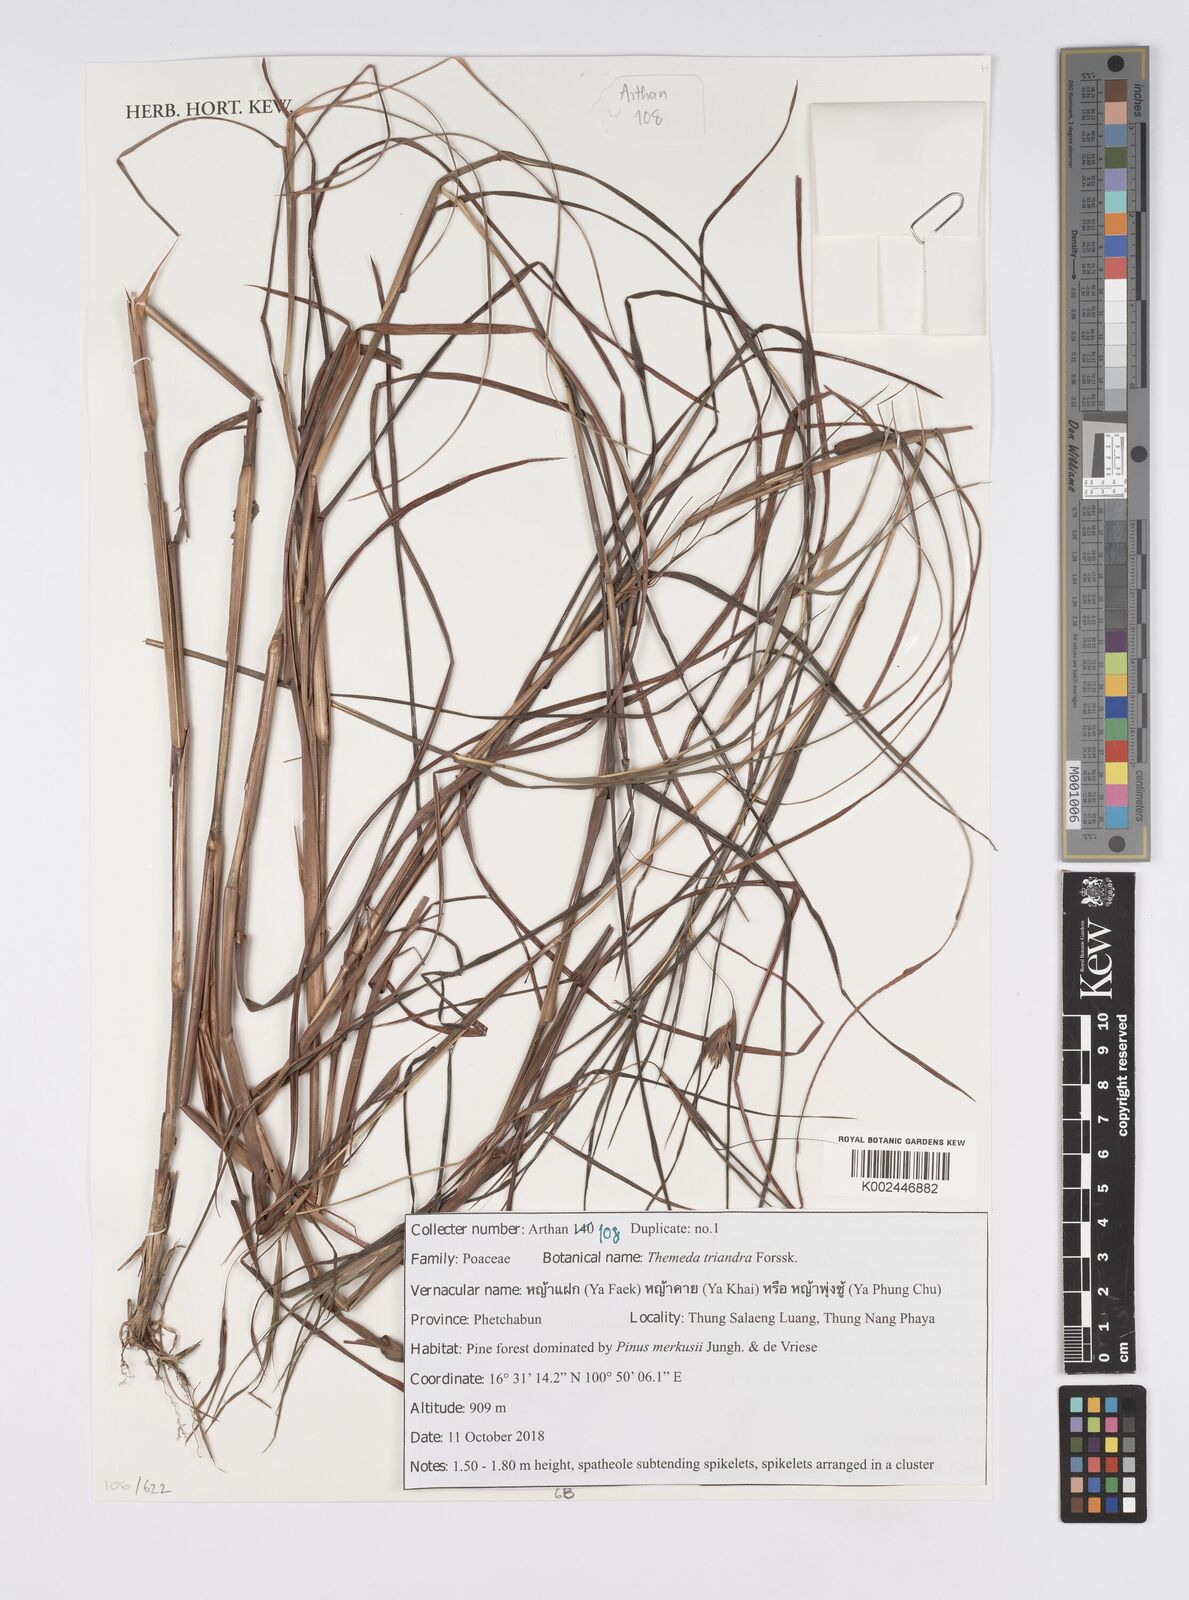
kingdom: Plantae
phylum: Tracheophyta
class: Liliopsida
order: Poales
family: Poaceae
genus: Themeda
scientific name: Themeda triandra
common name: Kangaroo grass
